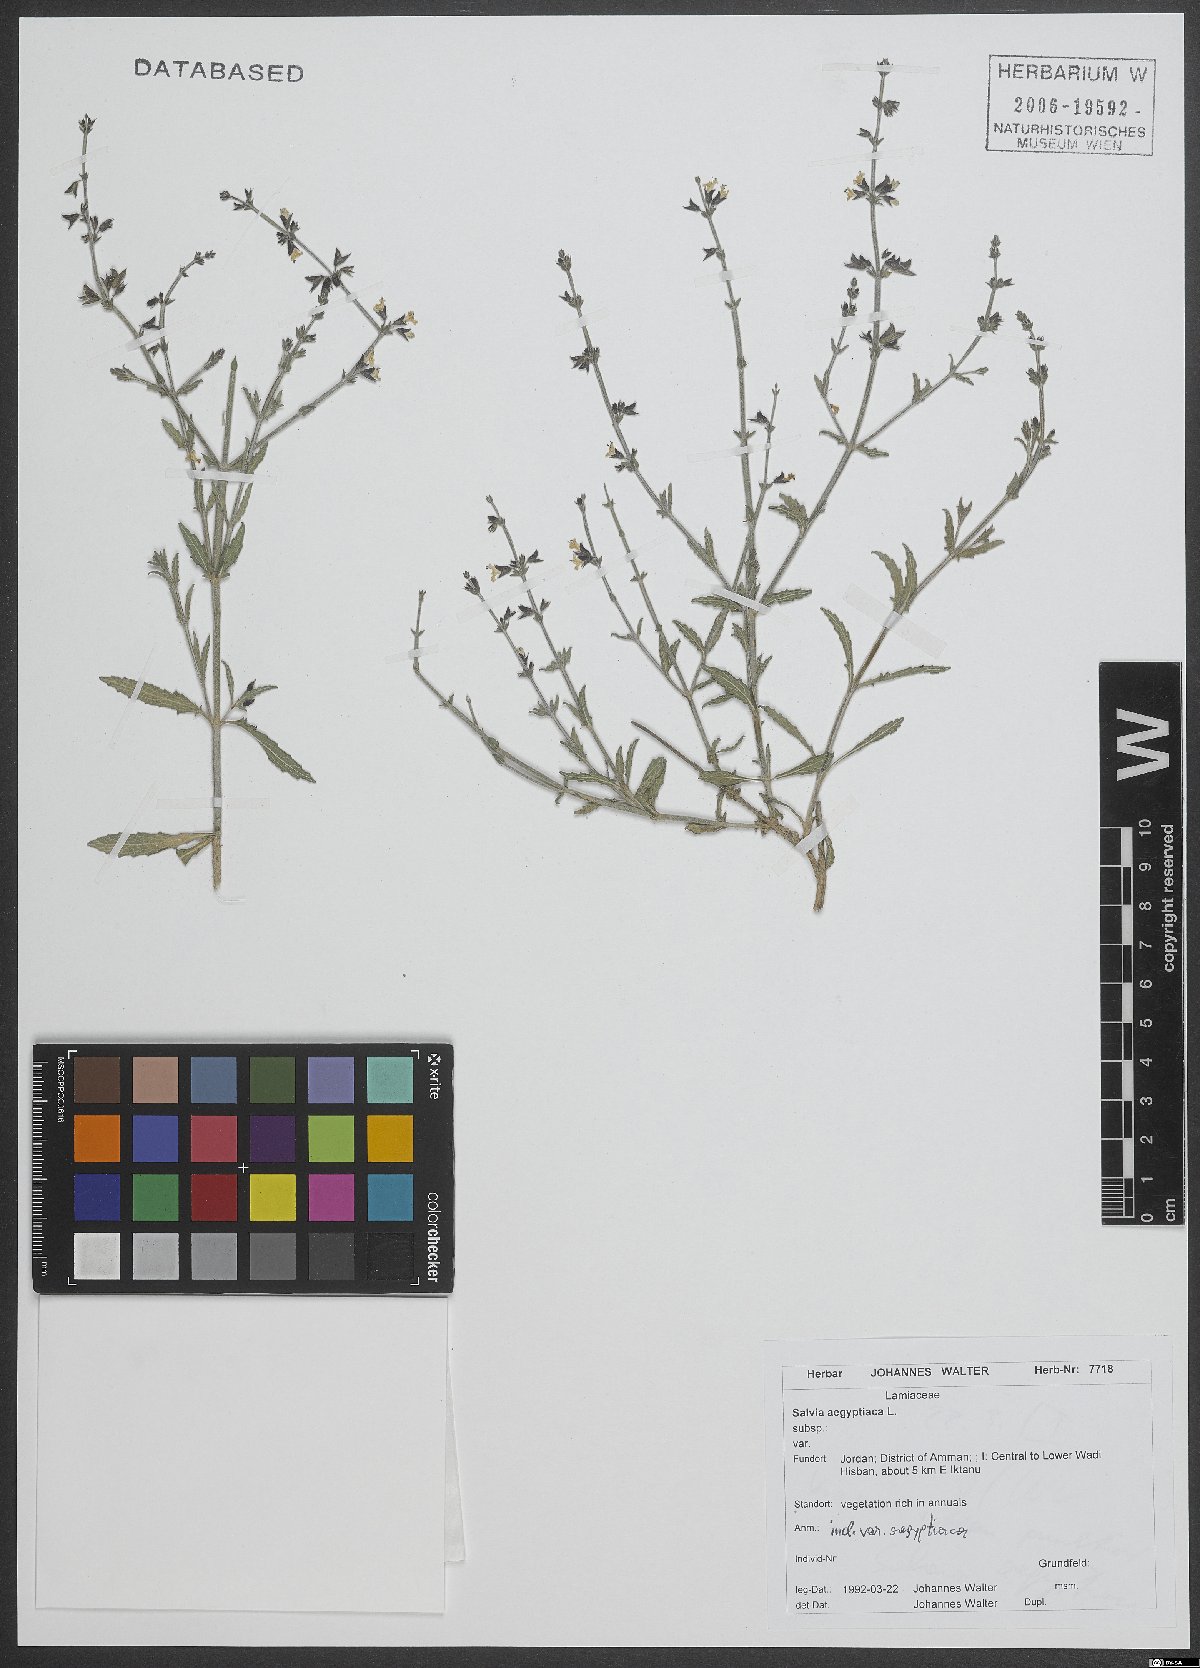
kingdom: Plantae
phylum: Tracheophyta
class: Magnoliopsida
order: Lamiales
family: Lamiaceae
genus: Salvia
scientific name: Salvia aegyptiaca
